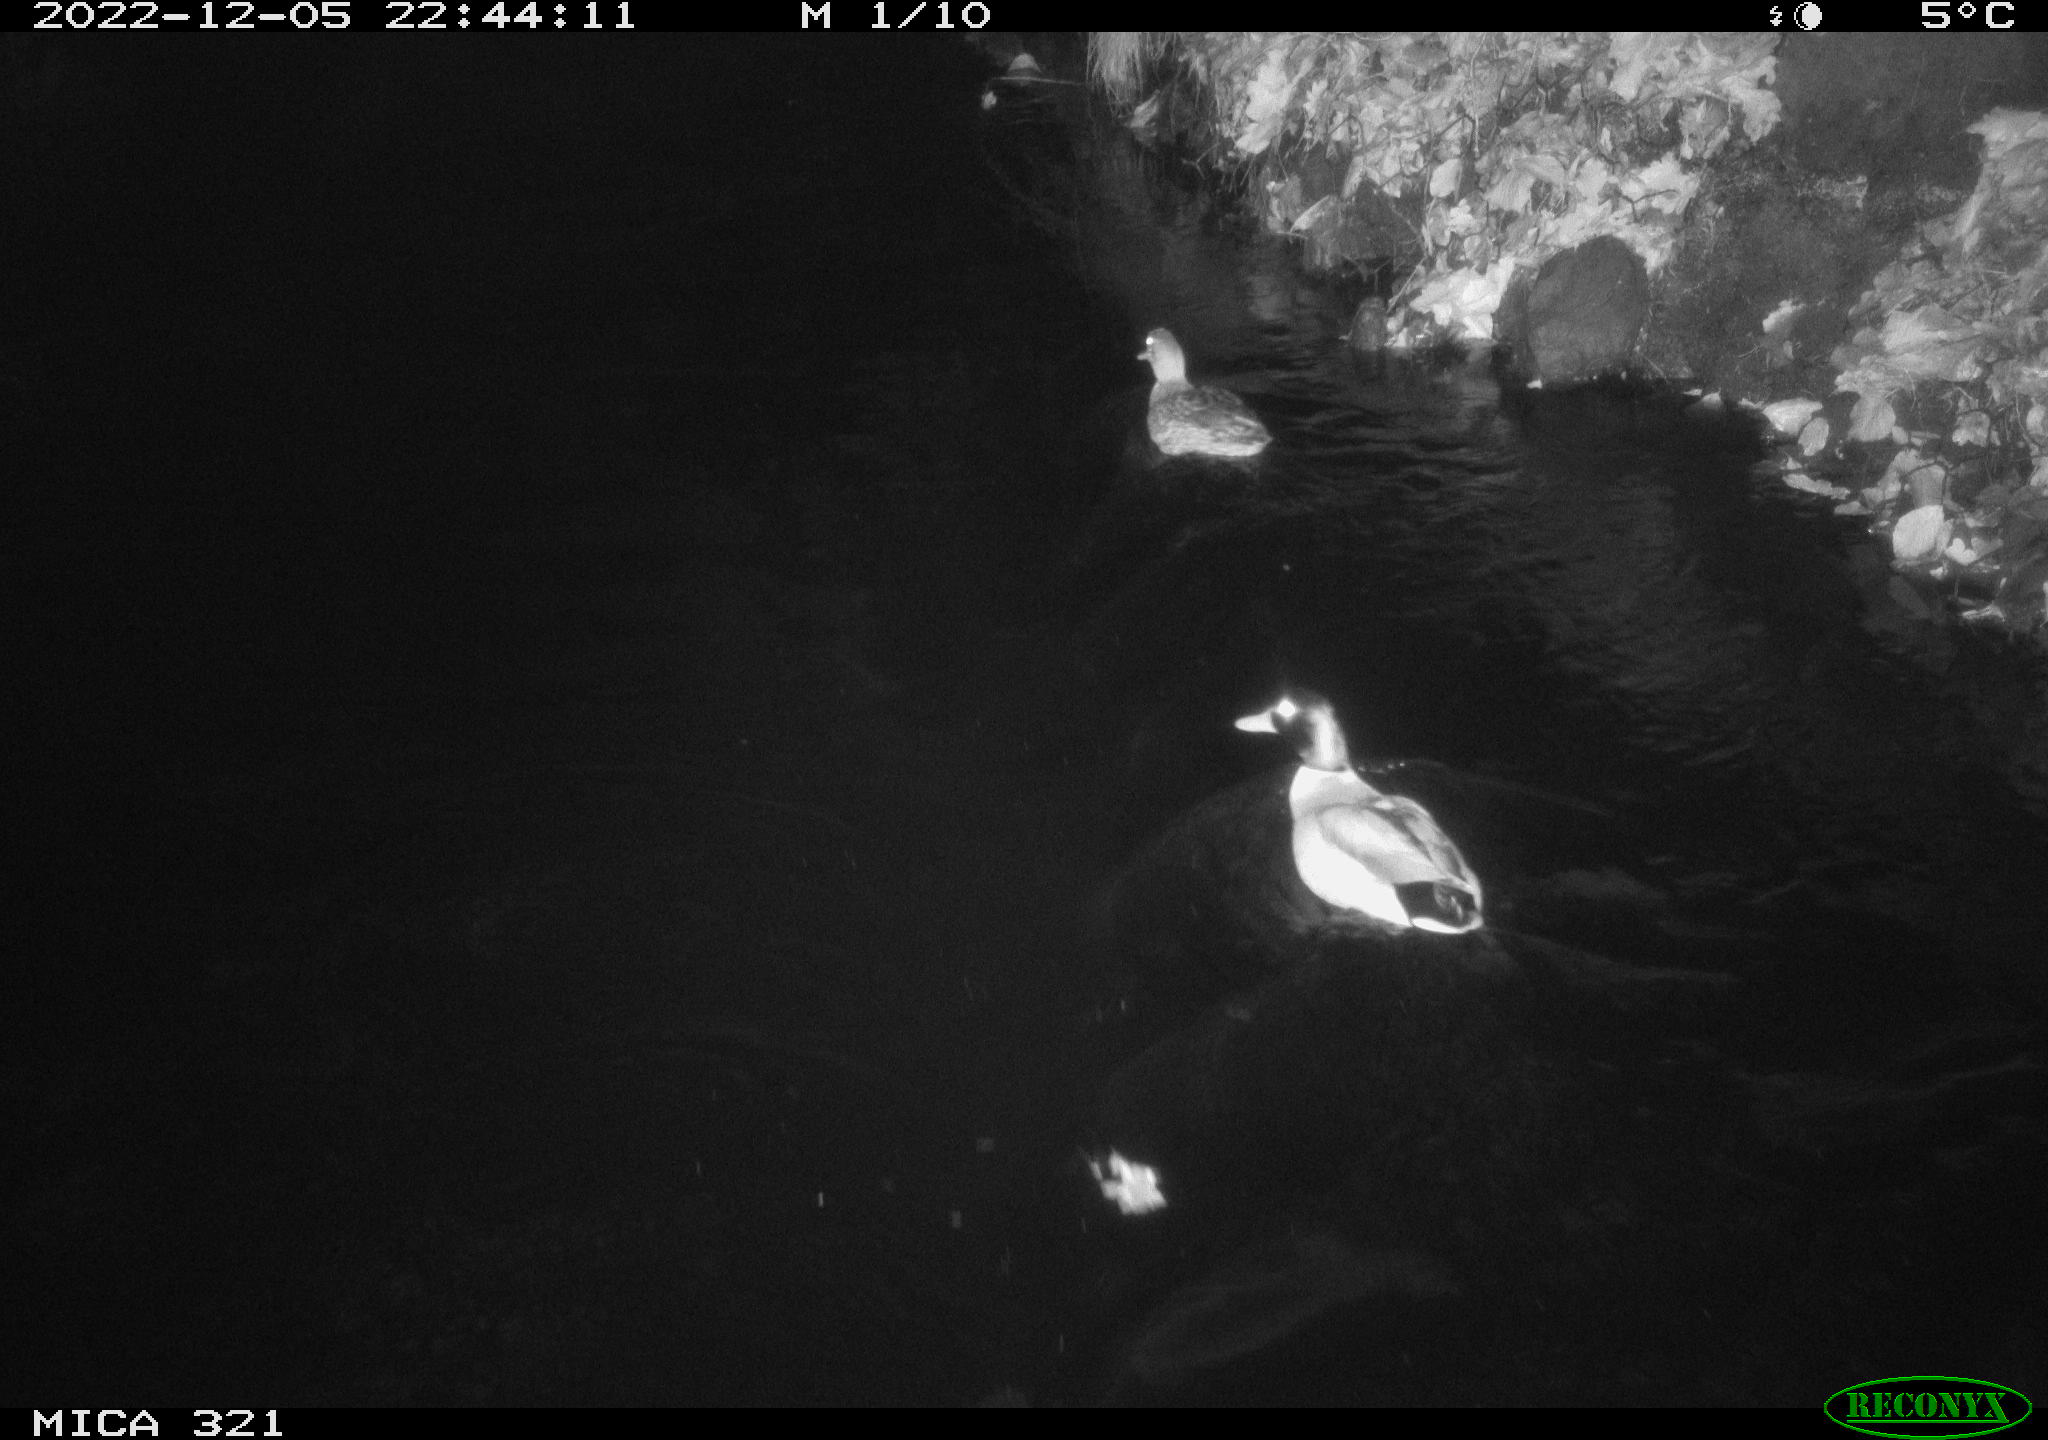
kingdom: Animalia
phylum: Chordata
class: Aves
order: Anseriformes
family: Anatidae
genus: Anas
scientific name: Anas
